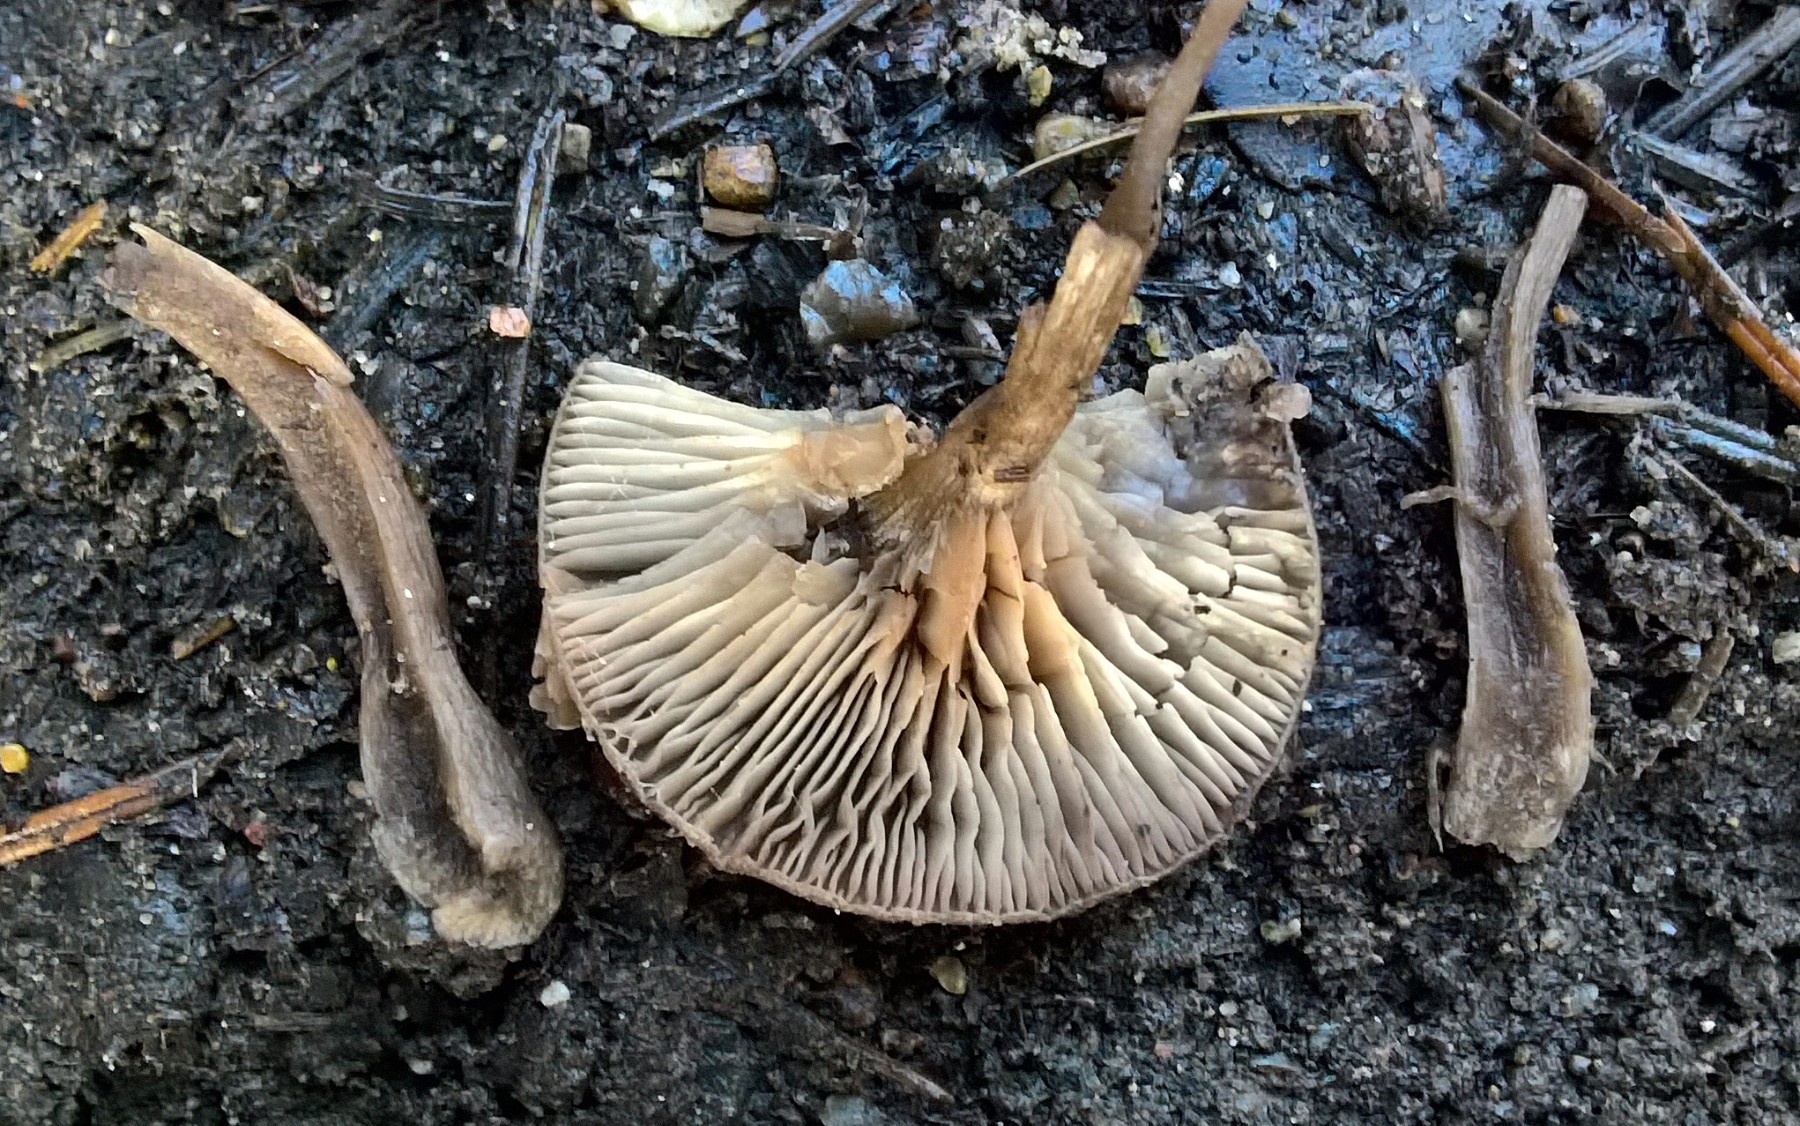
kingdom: Fungi
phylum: Basidiomycota
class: Agaricomycetes
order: Agaricales
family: Pseudoclitocybaceae
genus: Pseudoclitocybe
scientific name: Pseudoclitocybe cyathiformis
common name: almindelig bægertragthat
